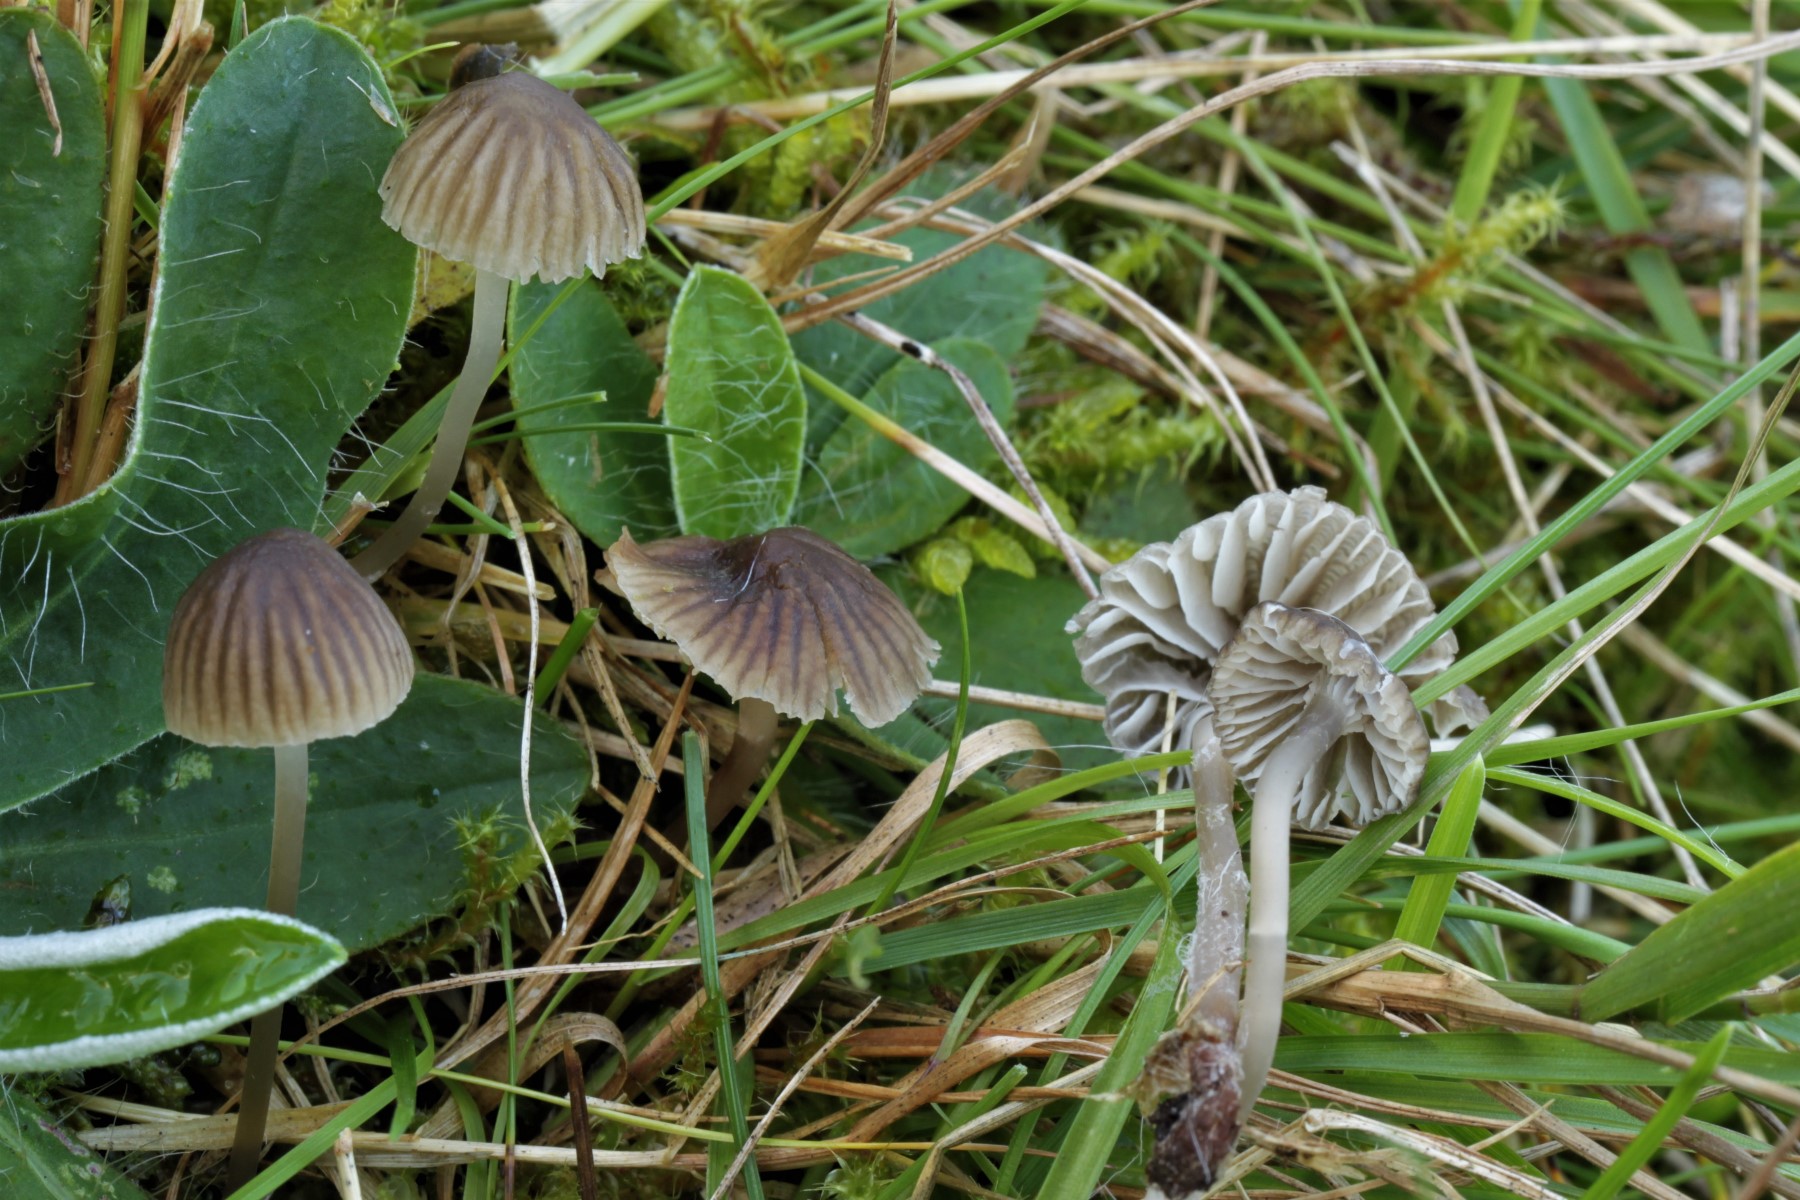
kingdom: Fungi
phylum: Basidiomycota
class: Agaricomycetes
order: Agaricales
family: Mycenaceae
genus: Mycena
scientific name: Mycena latifolia
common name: bredbladet huesvamp
